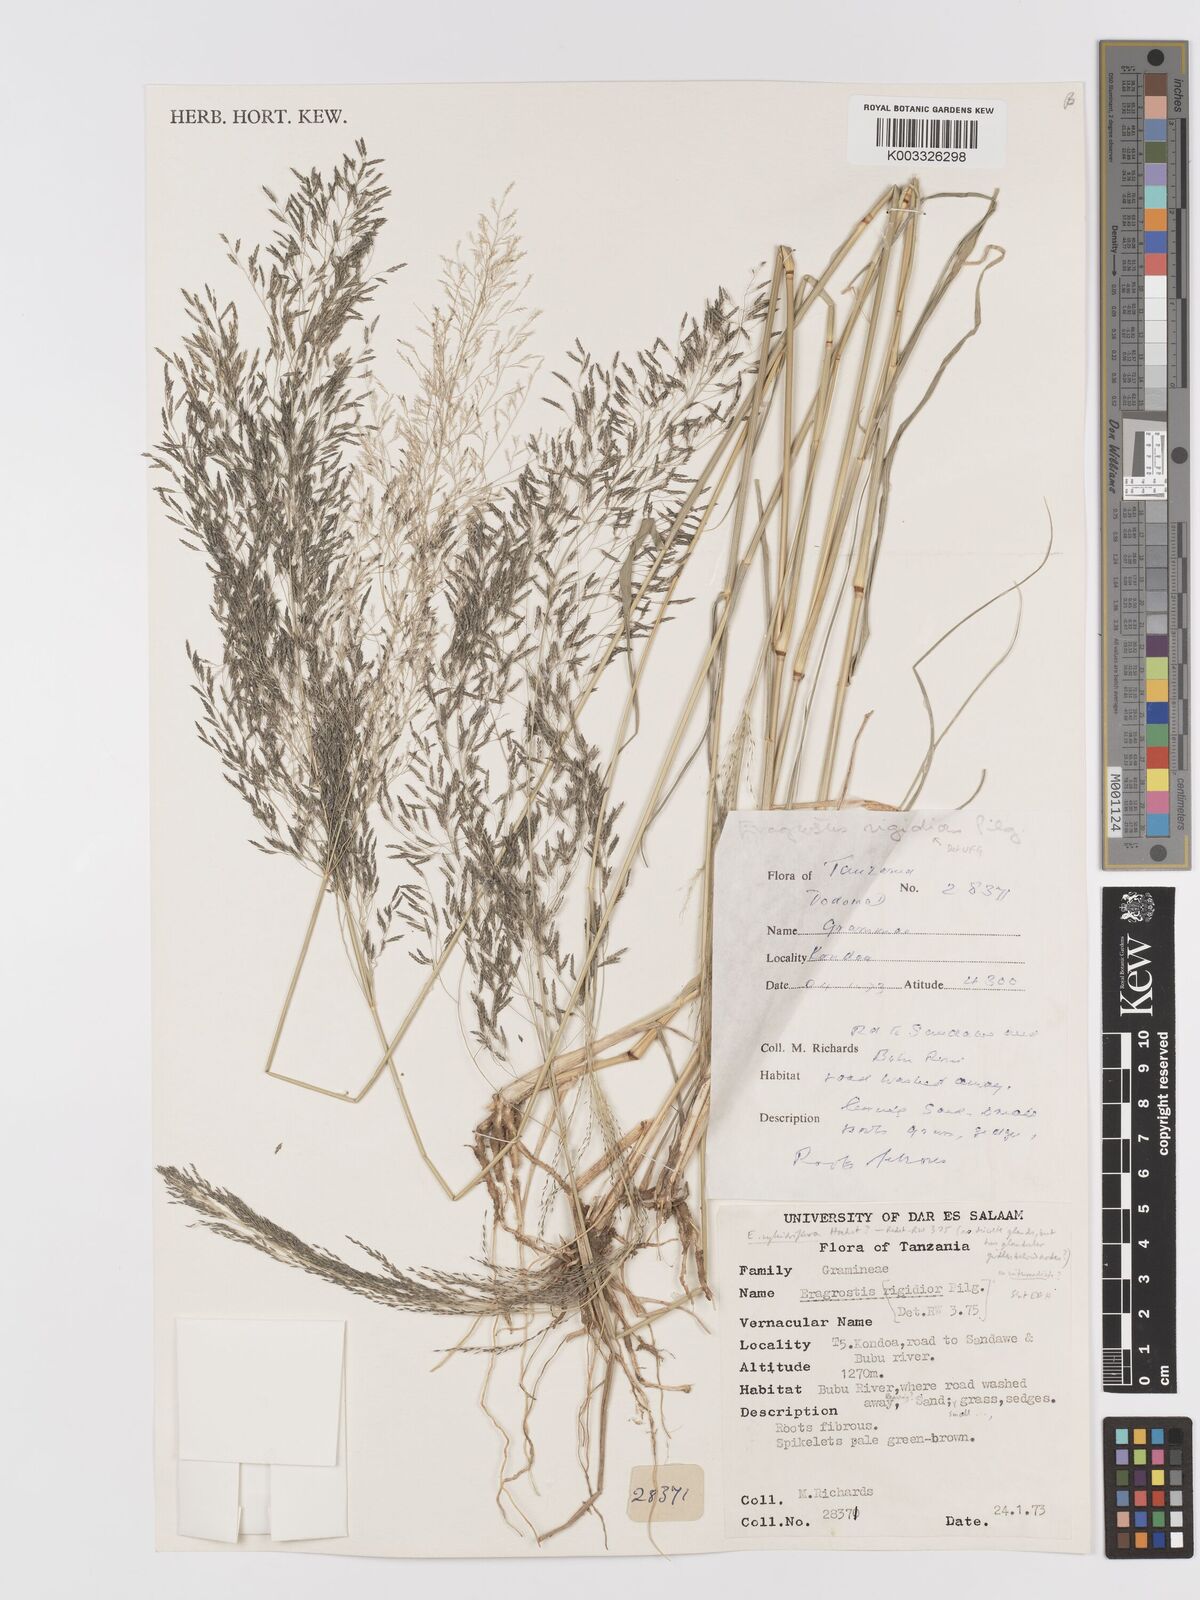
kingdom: Plantae
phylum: Tracheophyta
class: Liliopsida
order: Poales
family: Poaceae
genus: Eragrostis
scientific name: Eragrostis cylindriflora
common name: Cylinderflower lovegrass
